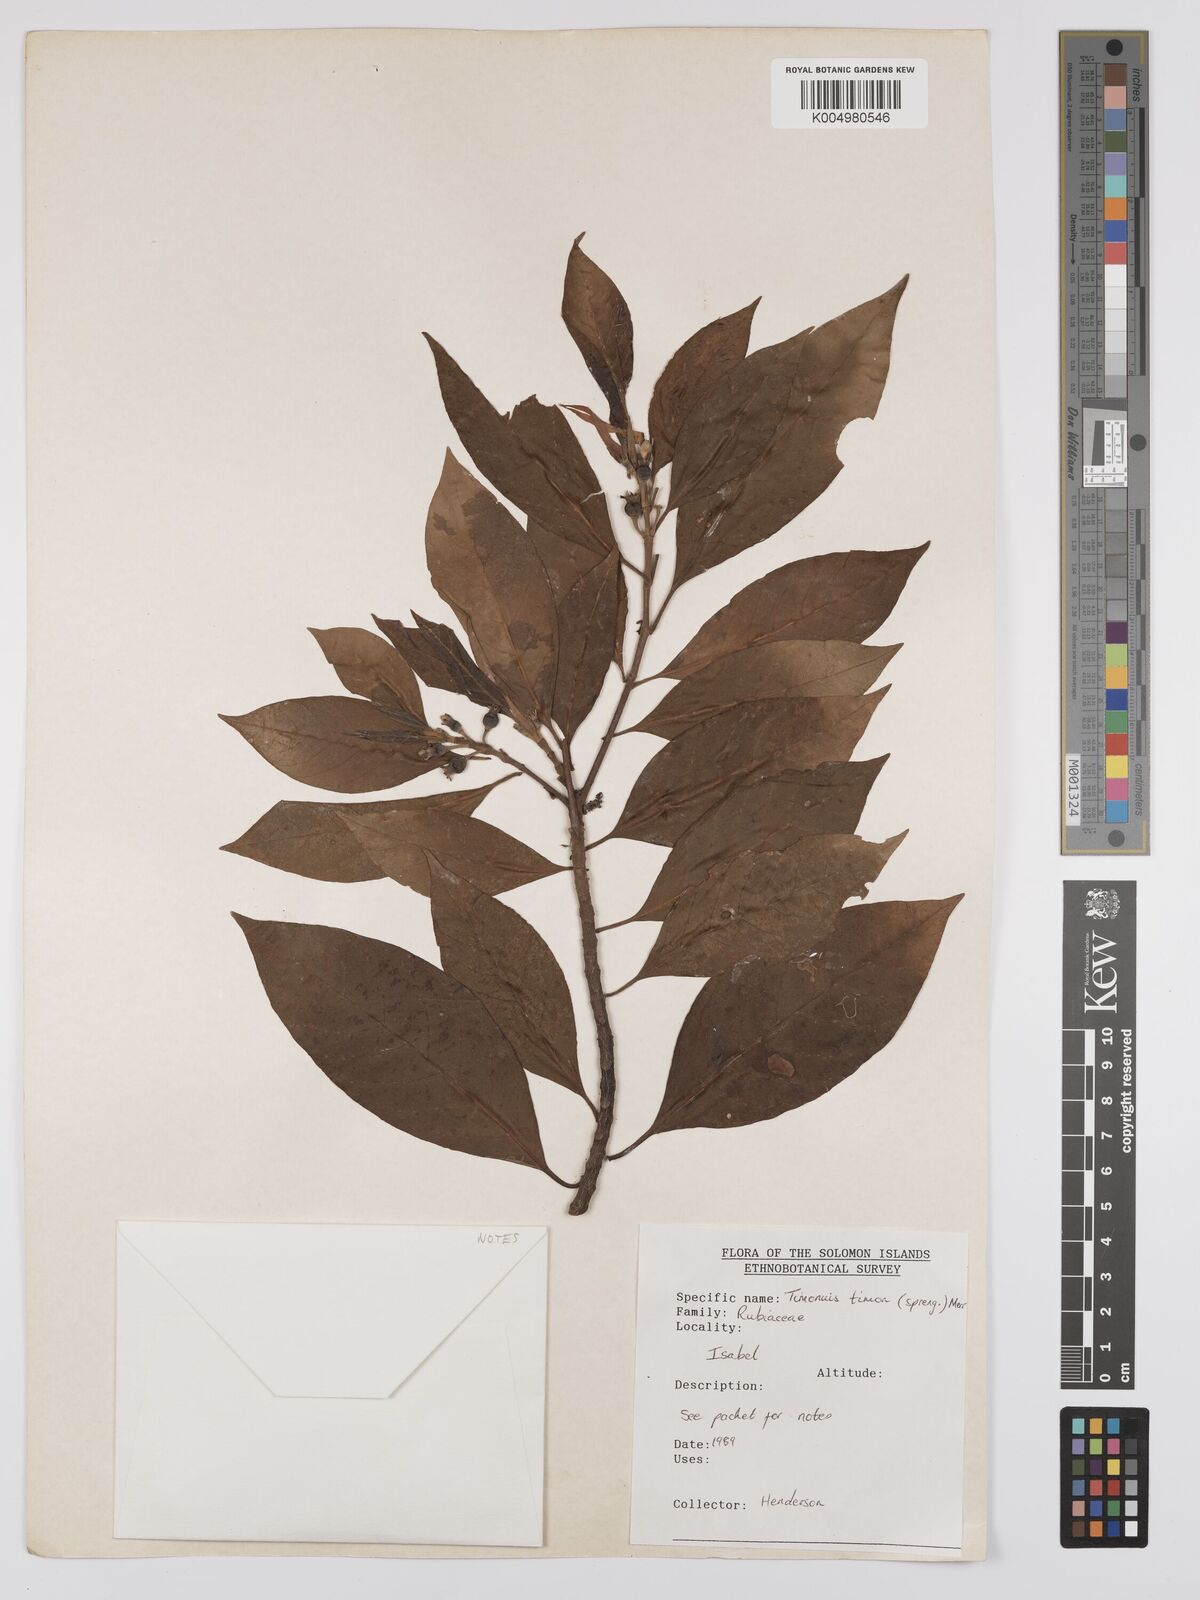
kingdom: Plantae
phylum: Tracheophyta
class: Magnoliopsida
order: Gentianales
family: Rubiaceae
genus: Timonius
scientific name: Timonius timon
